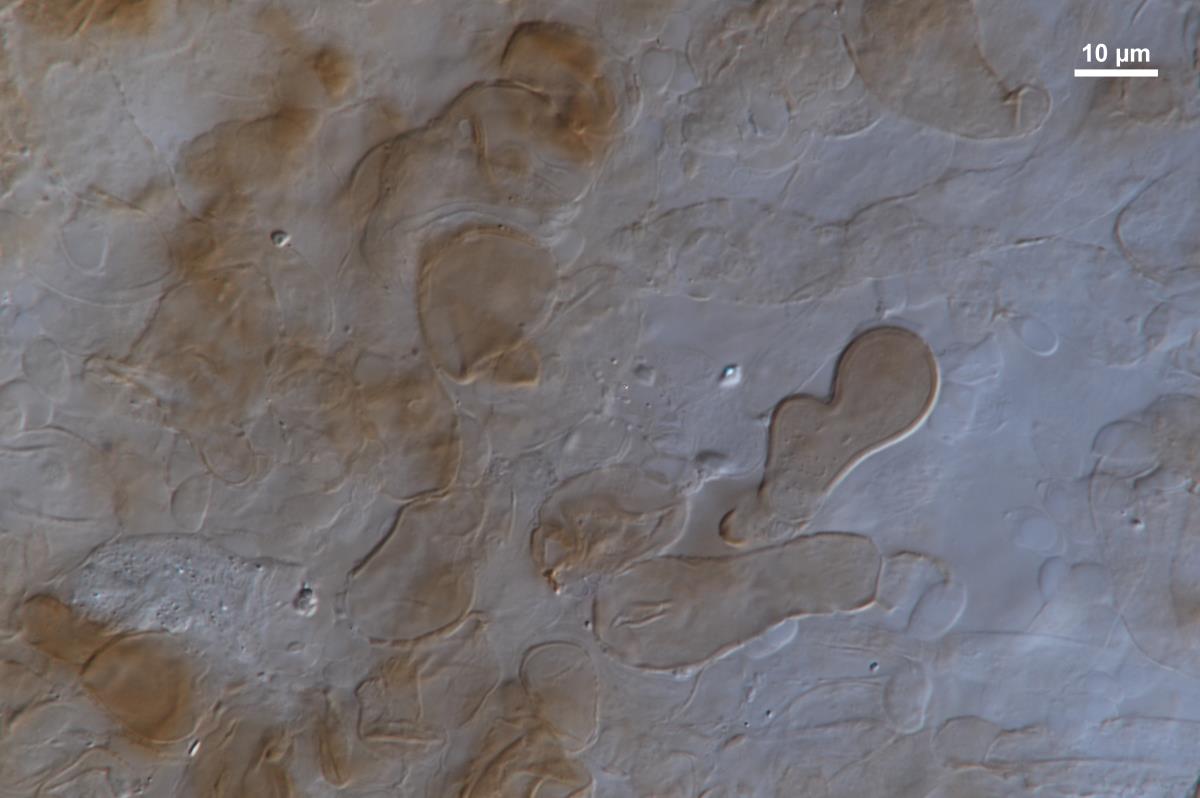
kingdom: Fungi
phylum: Basidiomycota
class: Agaricomycetes
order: Agaricales
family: Omphalotaceae
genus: Mycetinis
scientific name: Mycetinis curraniae
